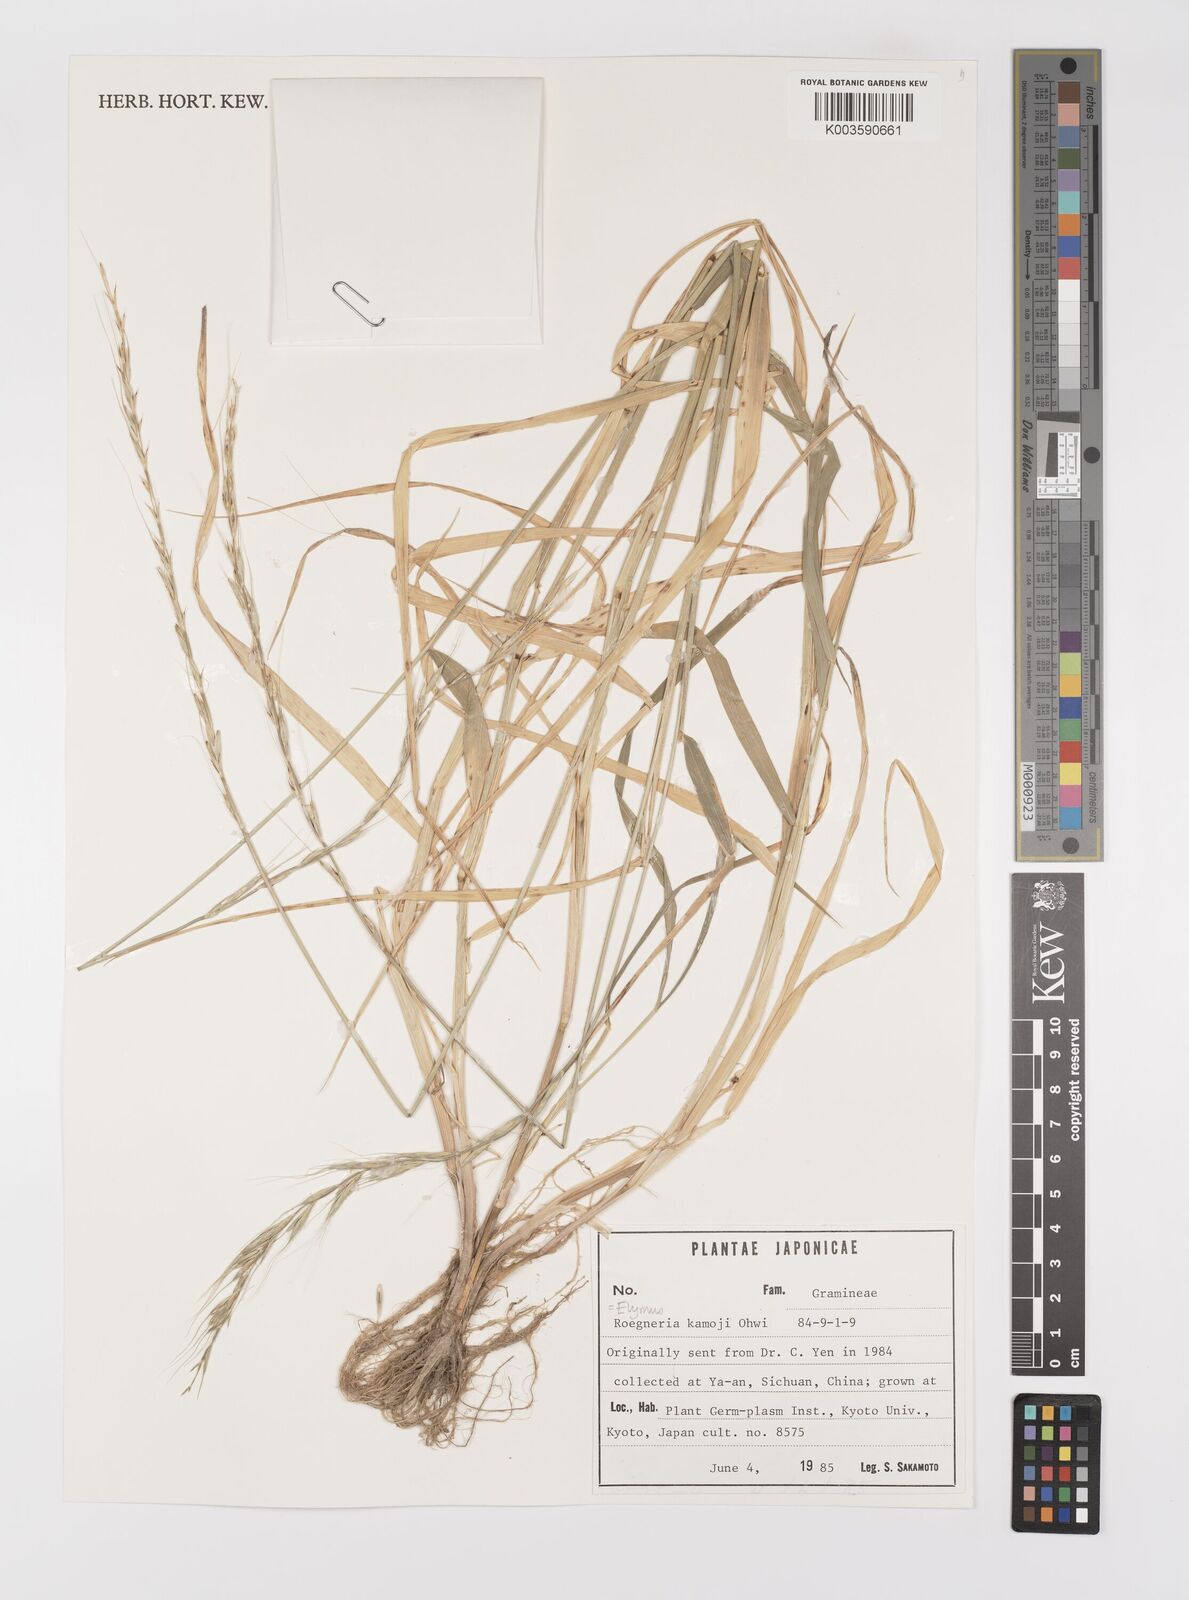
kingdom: Plantae
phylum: Tracheophyta
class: Liliopsida
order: Poales
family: Poaceae
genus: Elymus
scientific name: Elymus tsukushiensis
